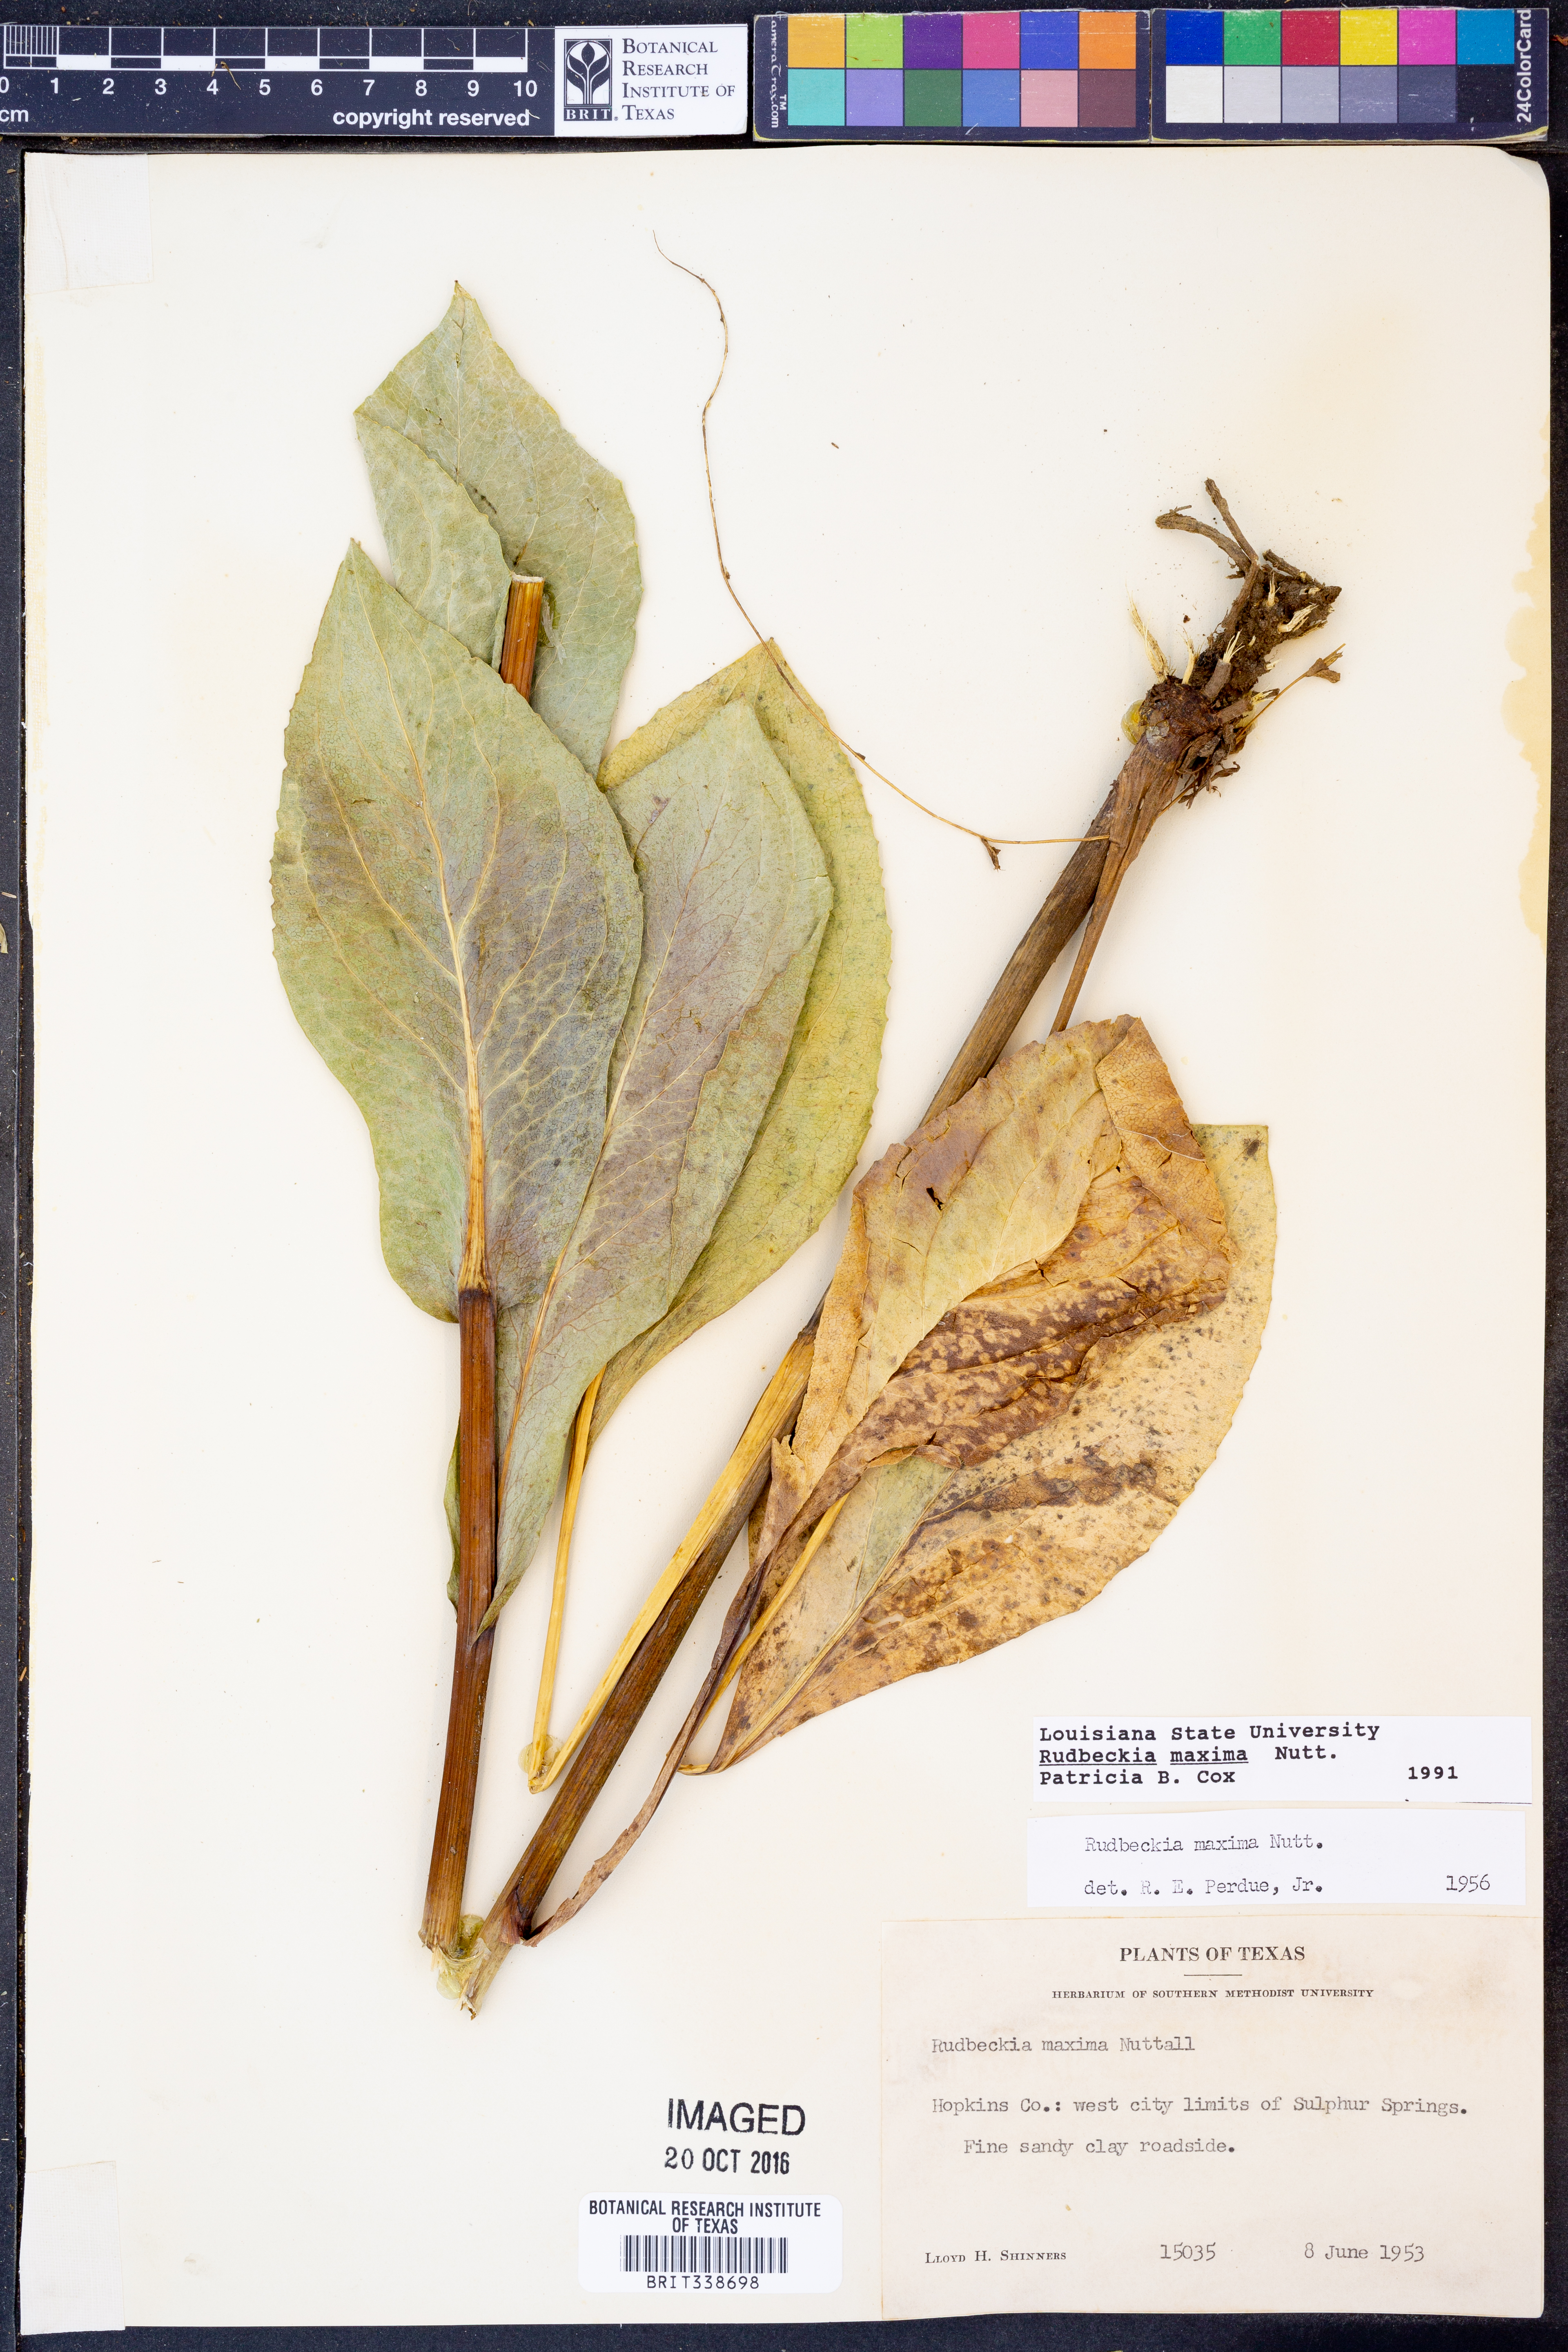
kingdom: Plantae
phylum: Tracheophyta
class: Magnoliopsida
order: Asterales
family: Asteraceae
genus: Rudbeckia
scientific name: Rudbeckia maxima
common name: Cabbage coneflower
